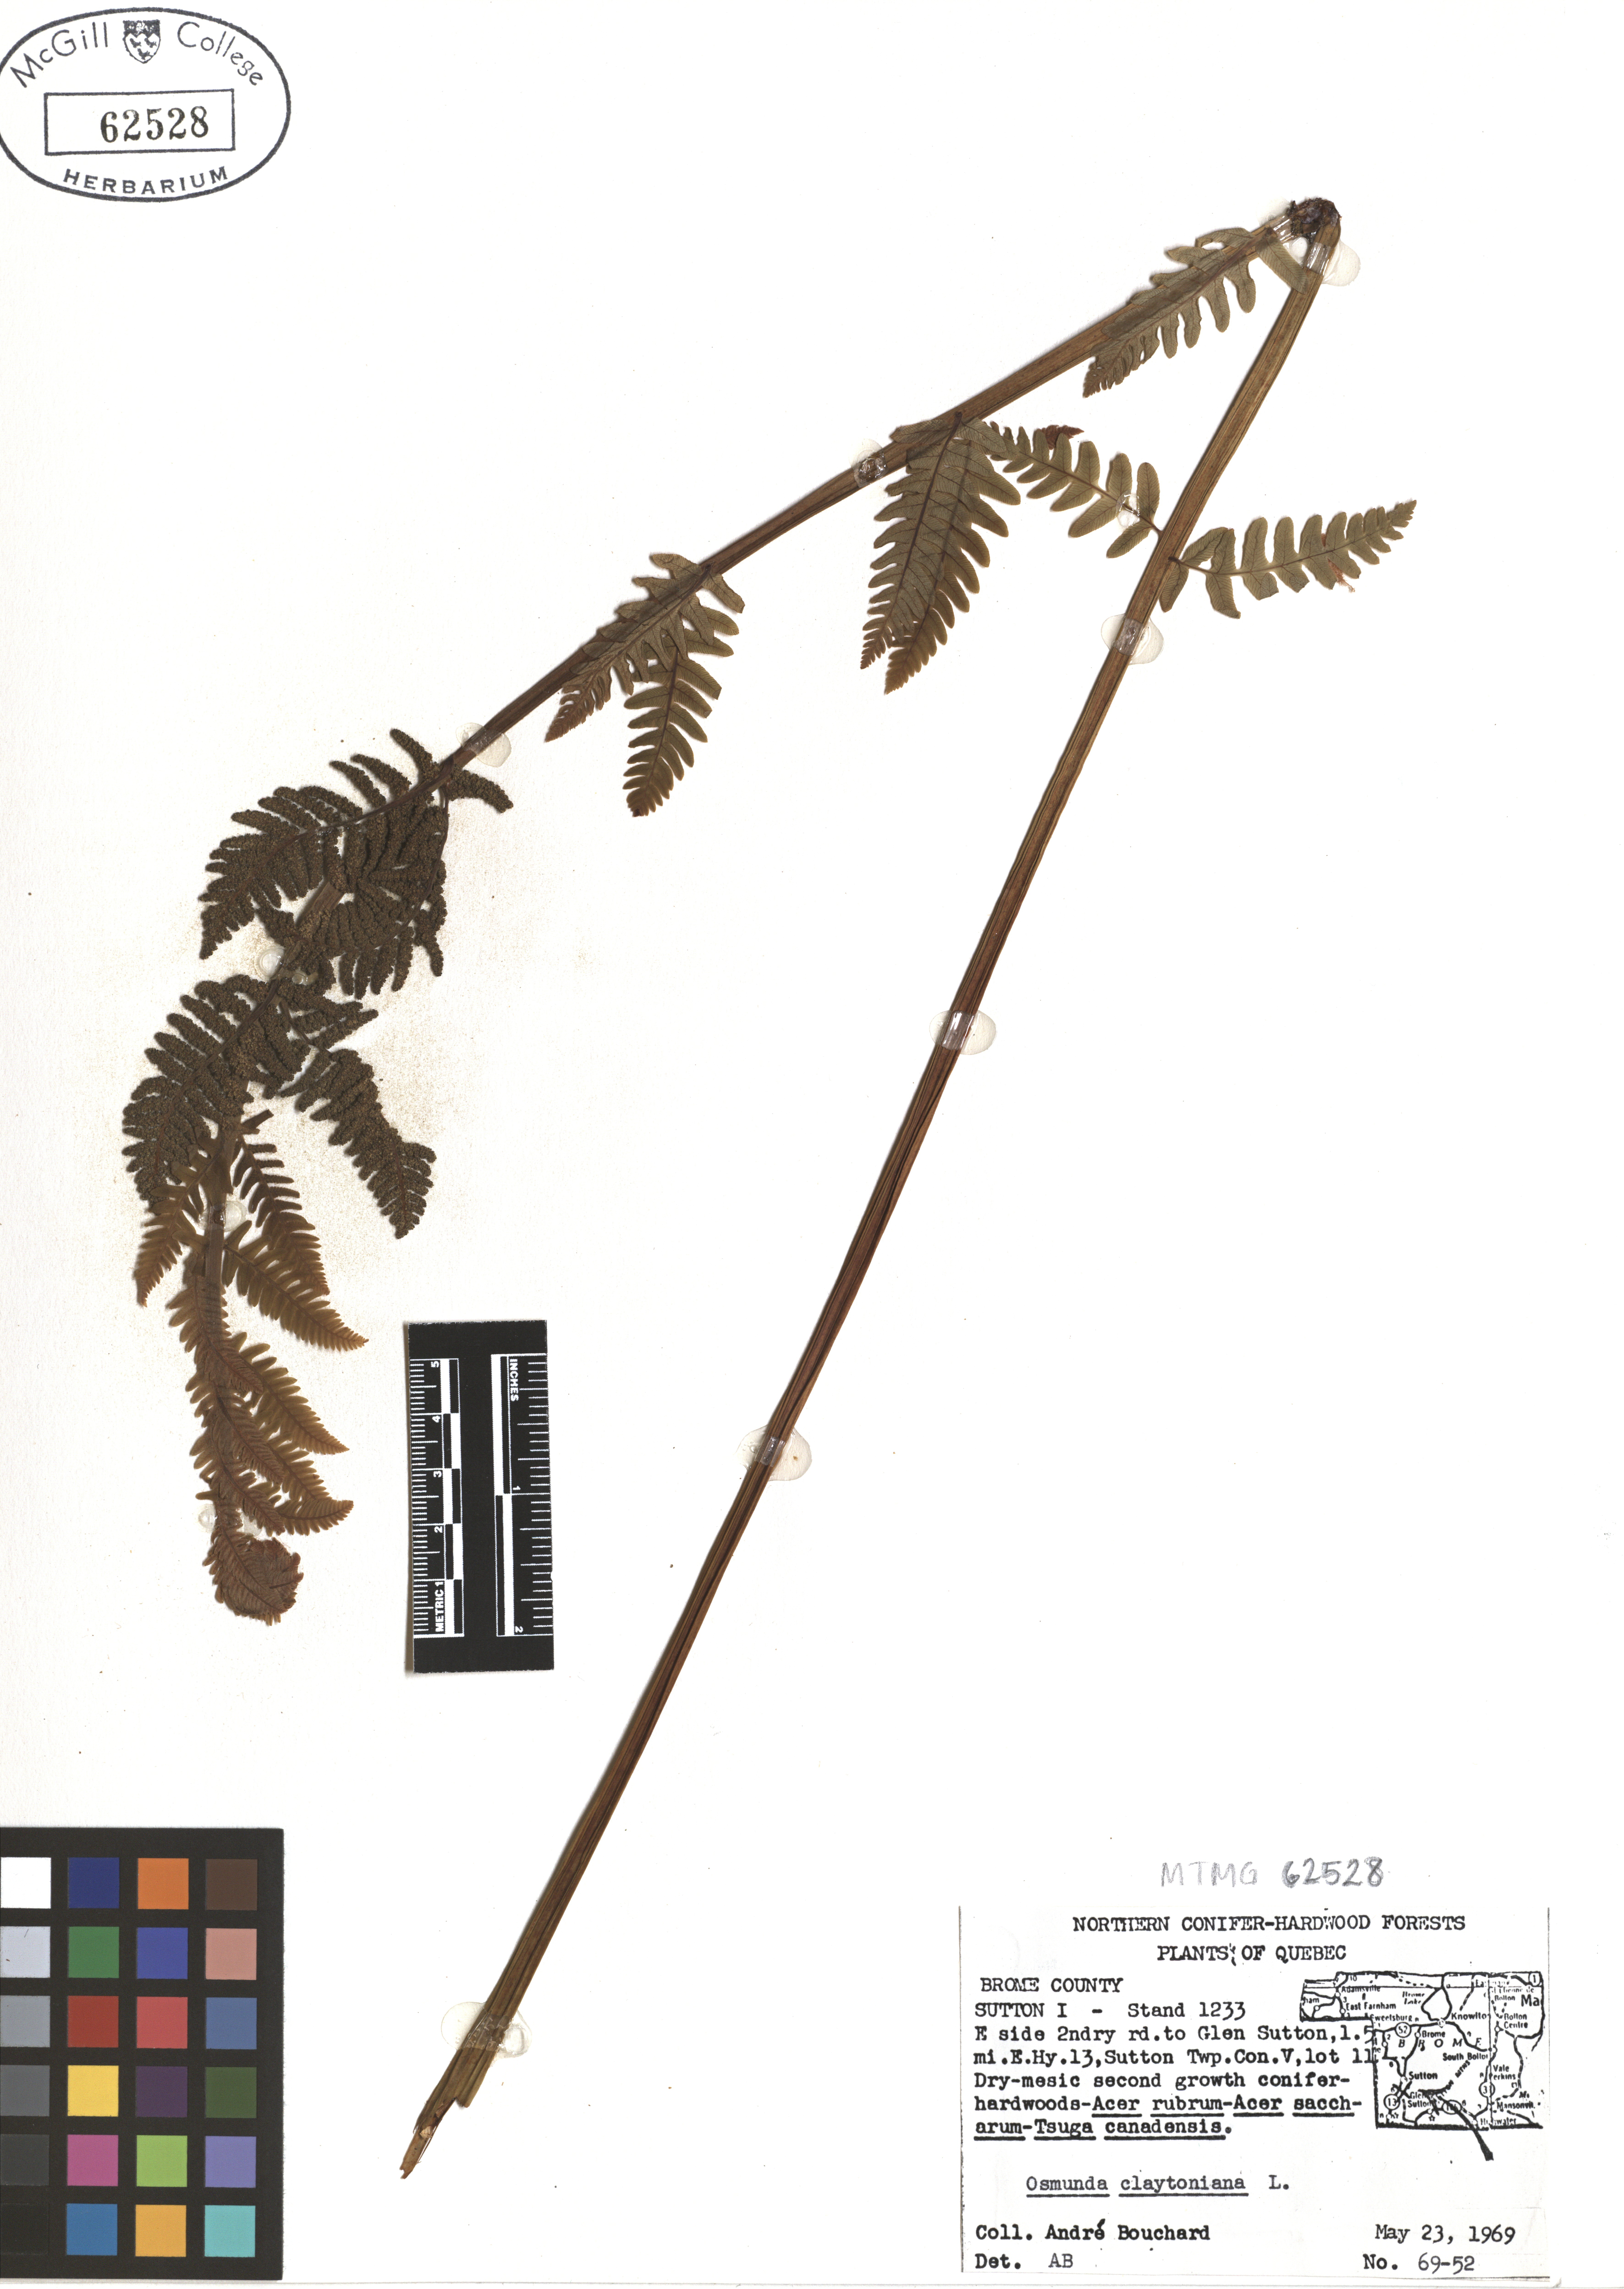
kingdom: Plantae
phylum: Tracheophyta
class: Polypodiopsida
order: Osmundales
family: Osmundaceae
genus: Claytosmunda
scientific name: Claytosmunda claytoniana
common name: Clayton's fern
